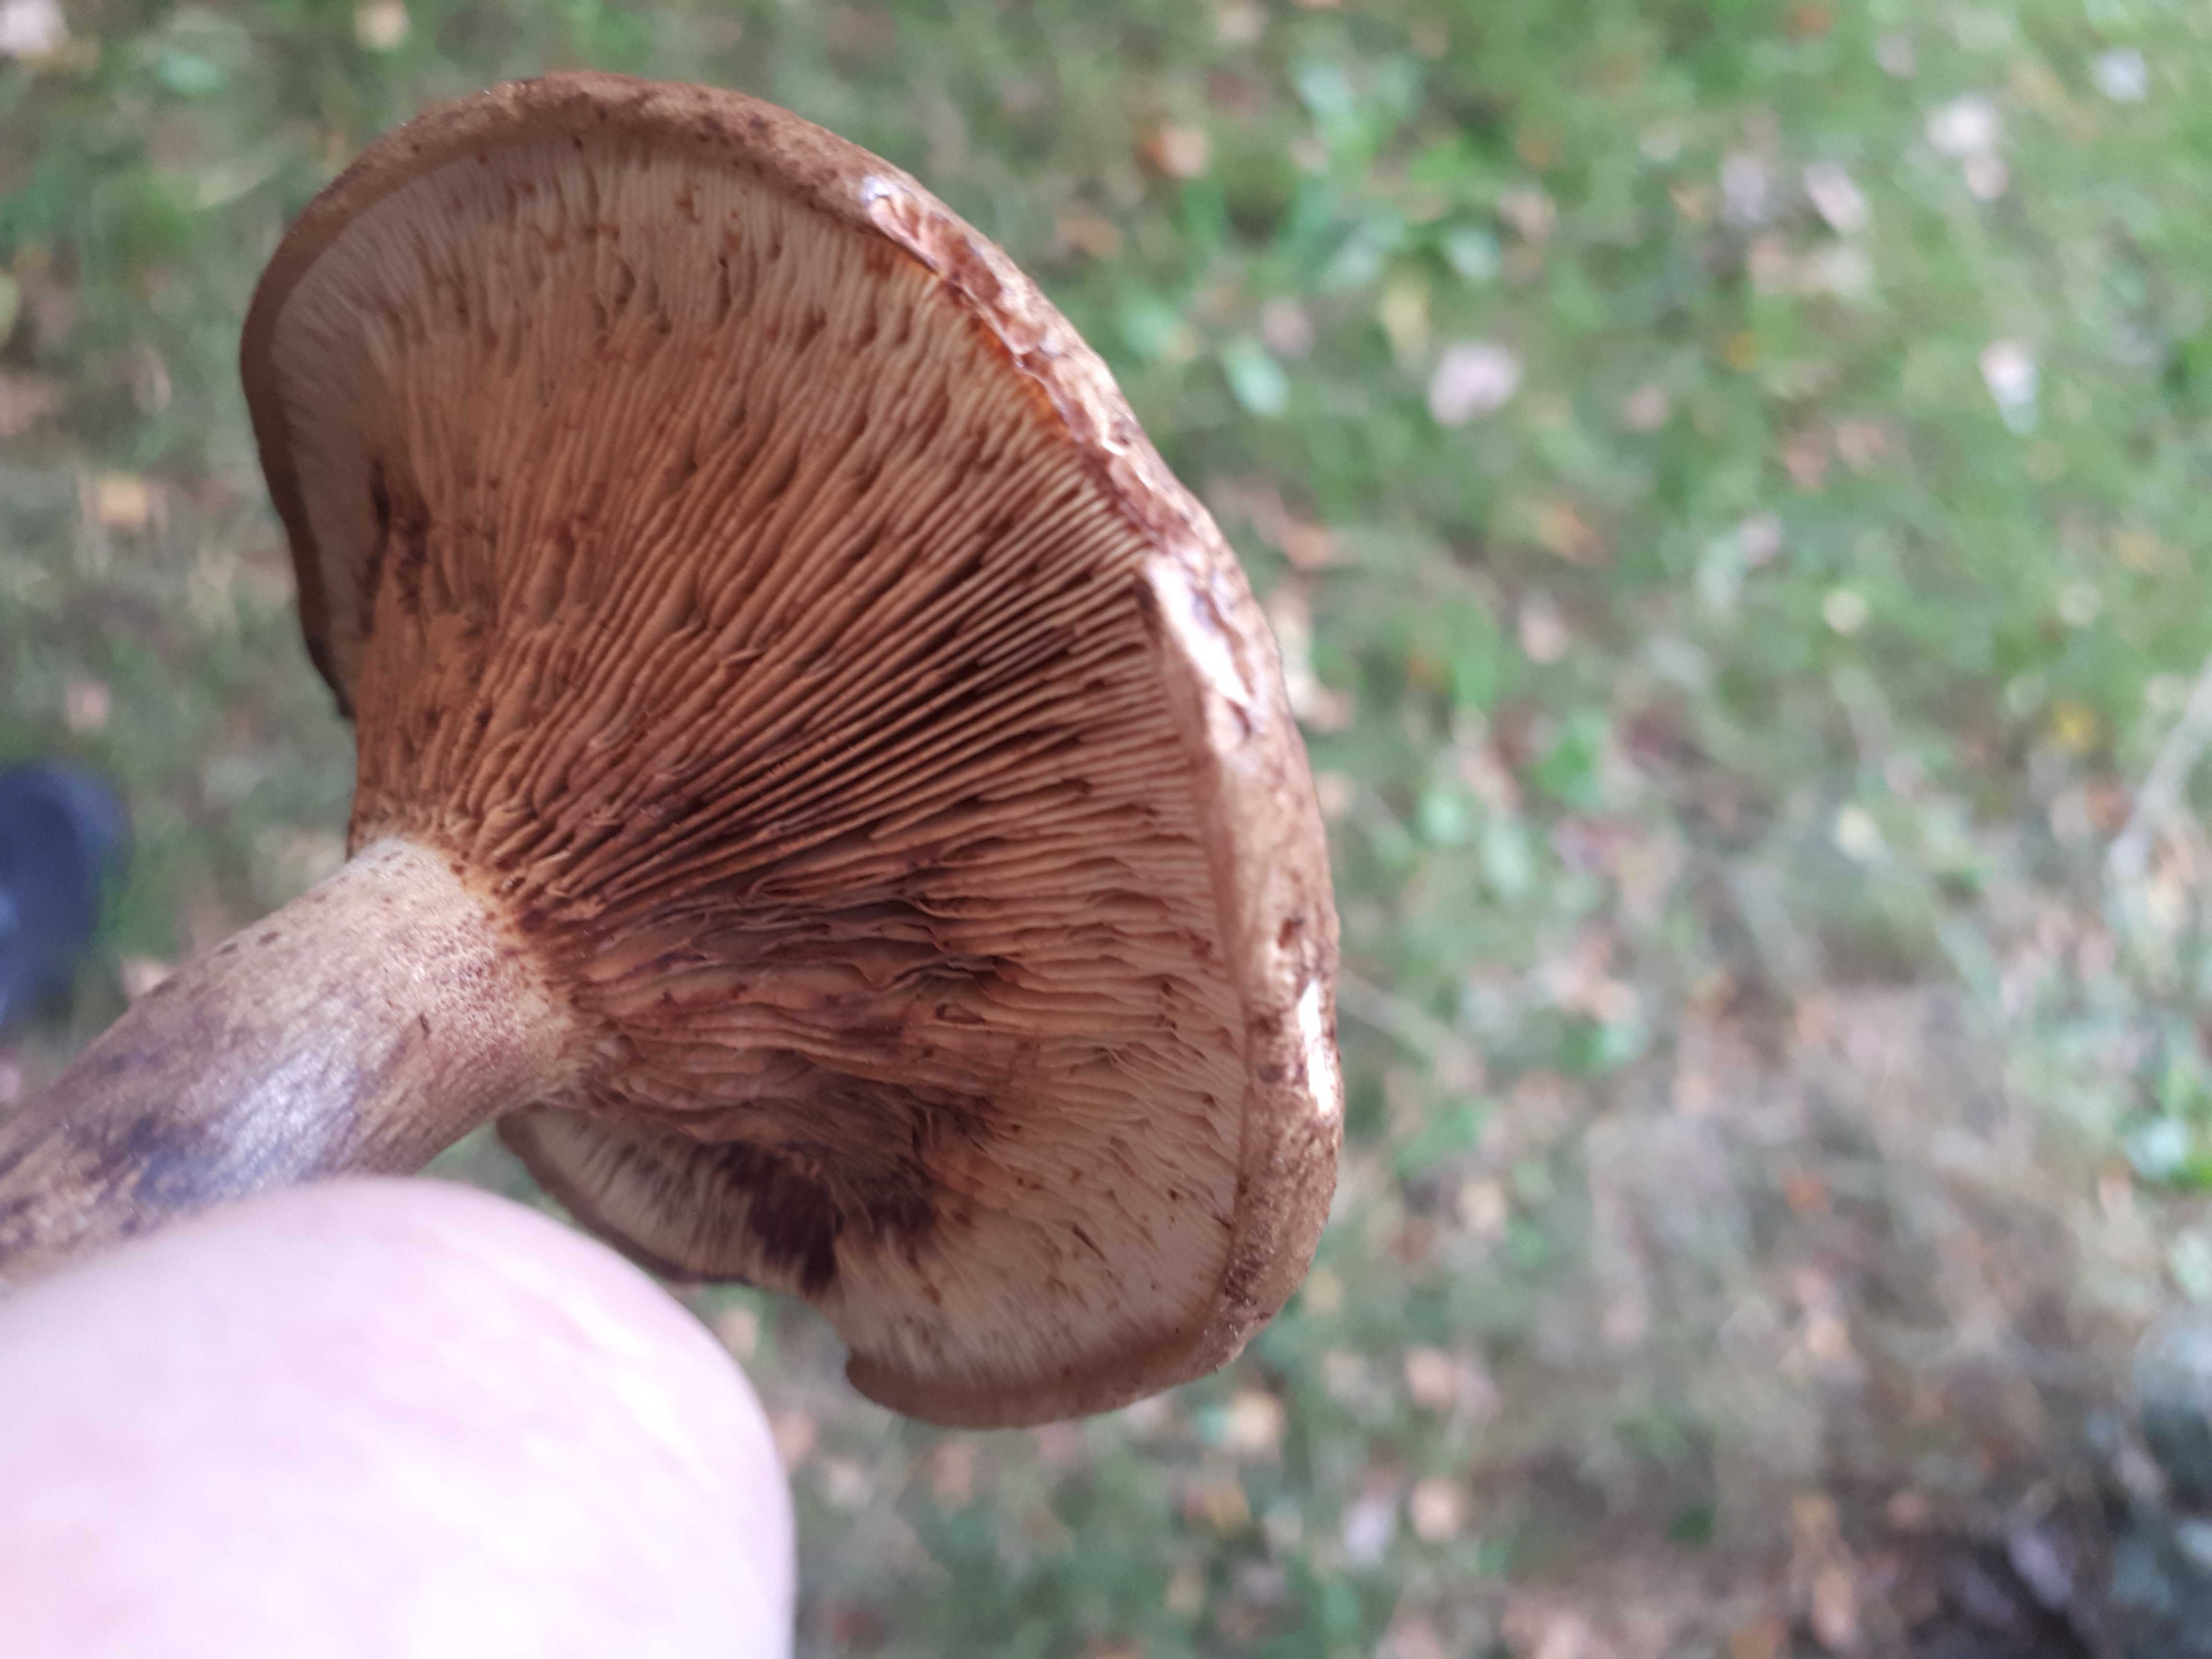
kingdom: Fungi
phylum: Basidiomycota
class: Agaricomycetes
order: Boletales
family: Paxillaceae
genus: Paxillus
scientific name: Paxillus
